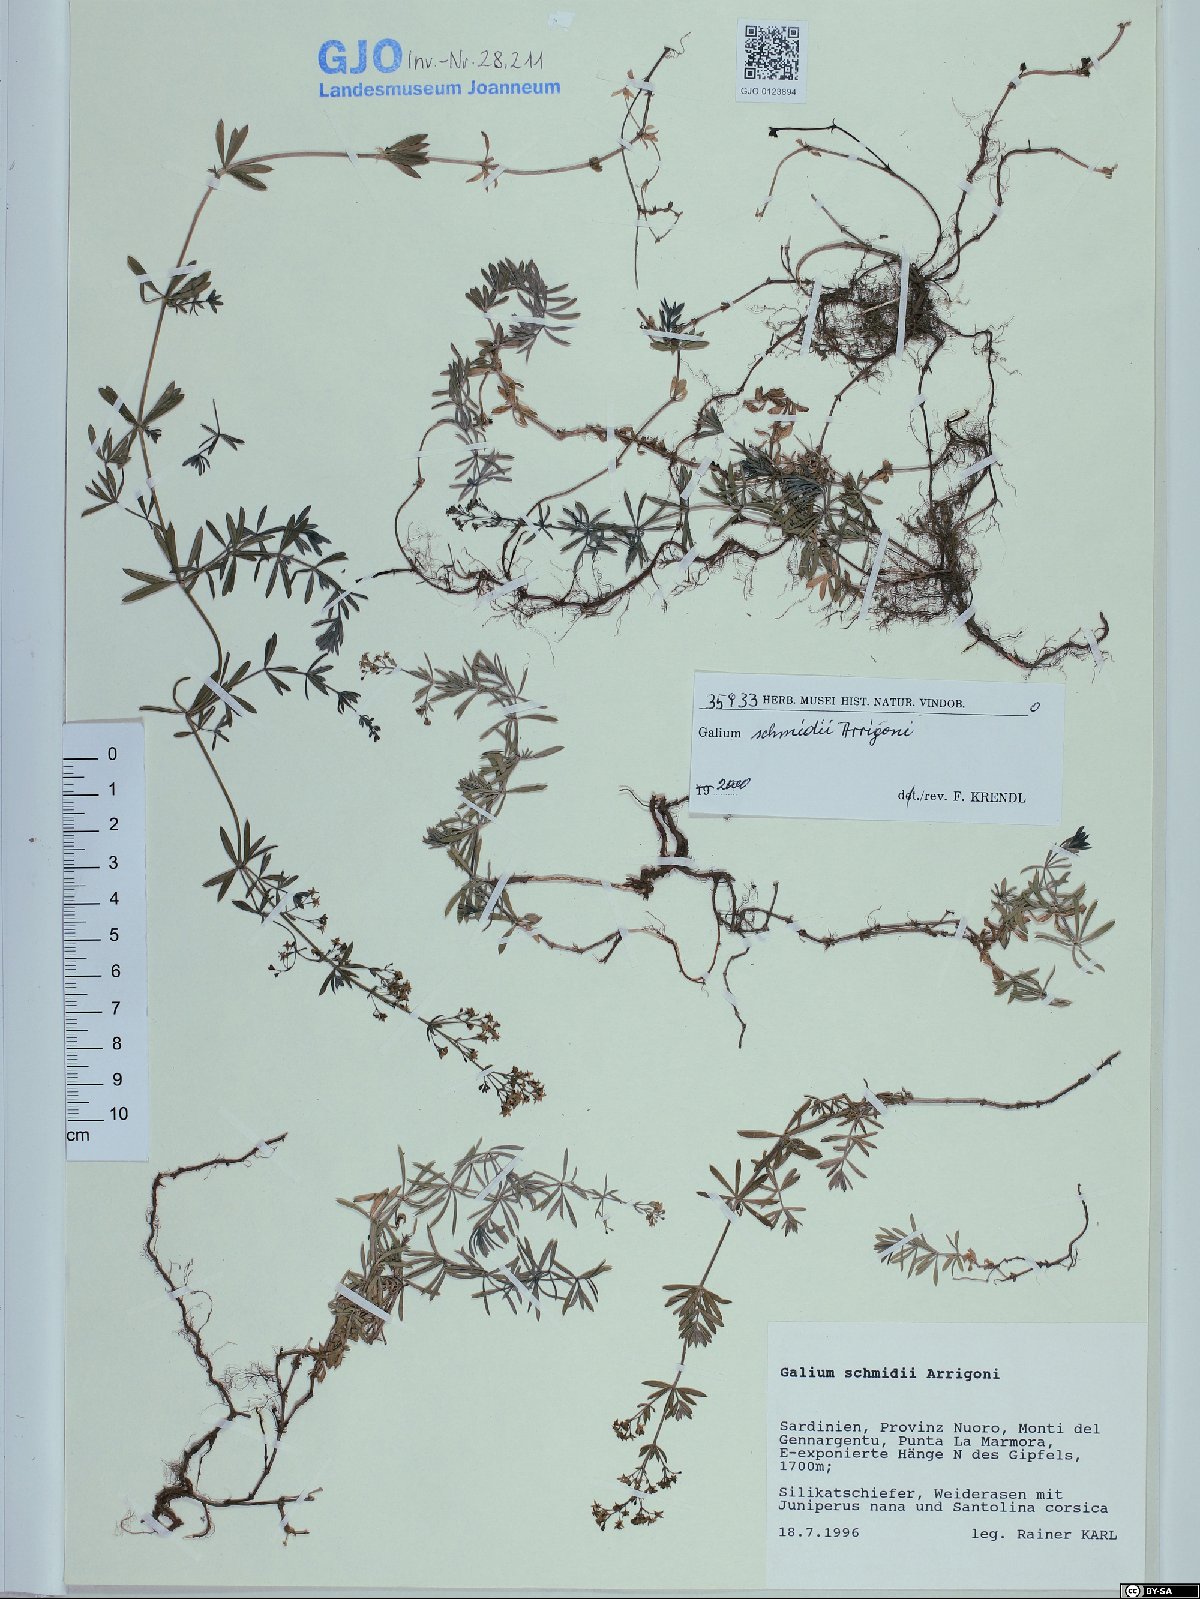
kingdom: Plantae
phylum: Tracheophyta
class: Magnoliopsida
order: Gentianales
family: Rubiaceae
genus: Galium
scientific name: Galium schmidii
